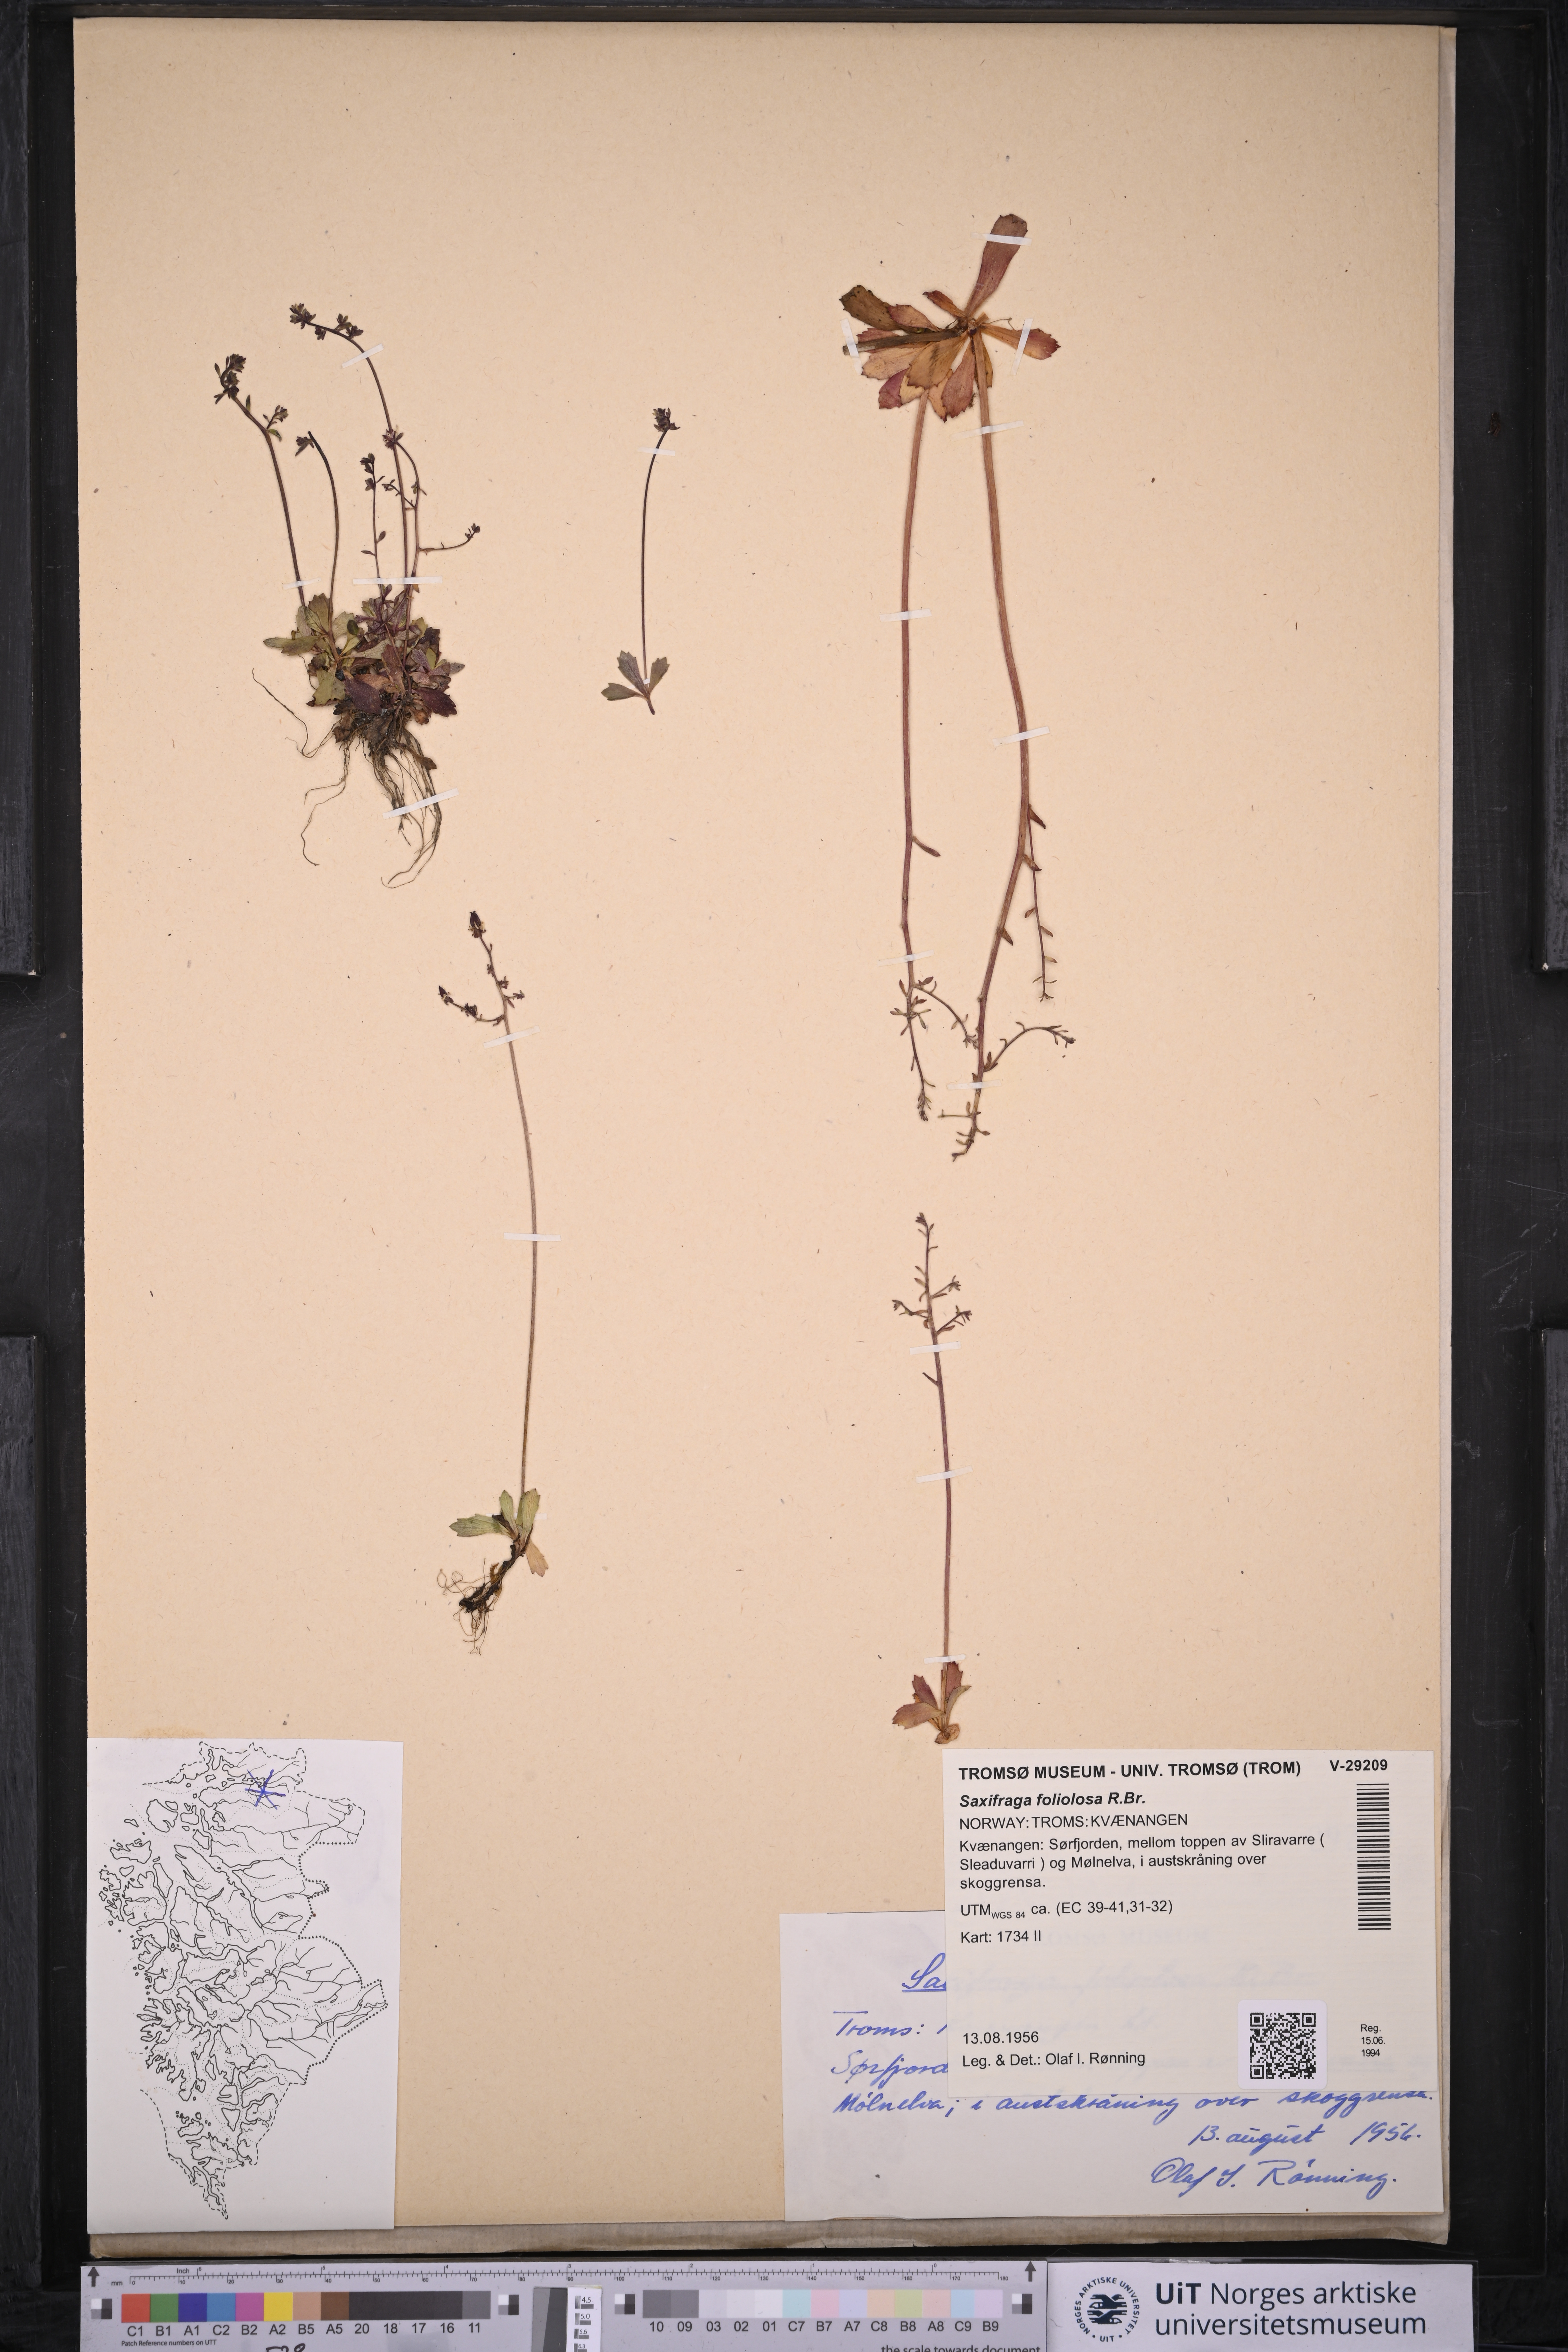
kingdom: Plantae
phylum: Tracheophyta
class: Magnoliopsida
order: Saxifragales
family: Saxifragaceae
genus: Micranthes
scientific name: Micranthes foliolosa
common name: Leafystem saxifrage
